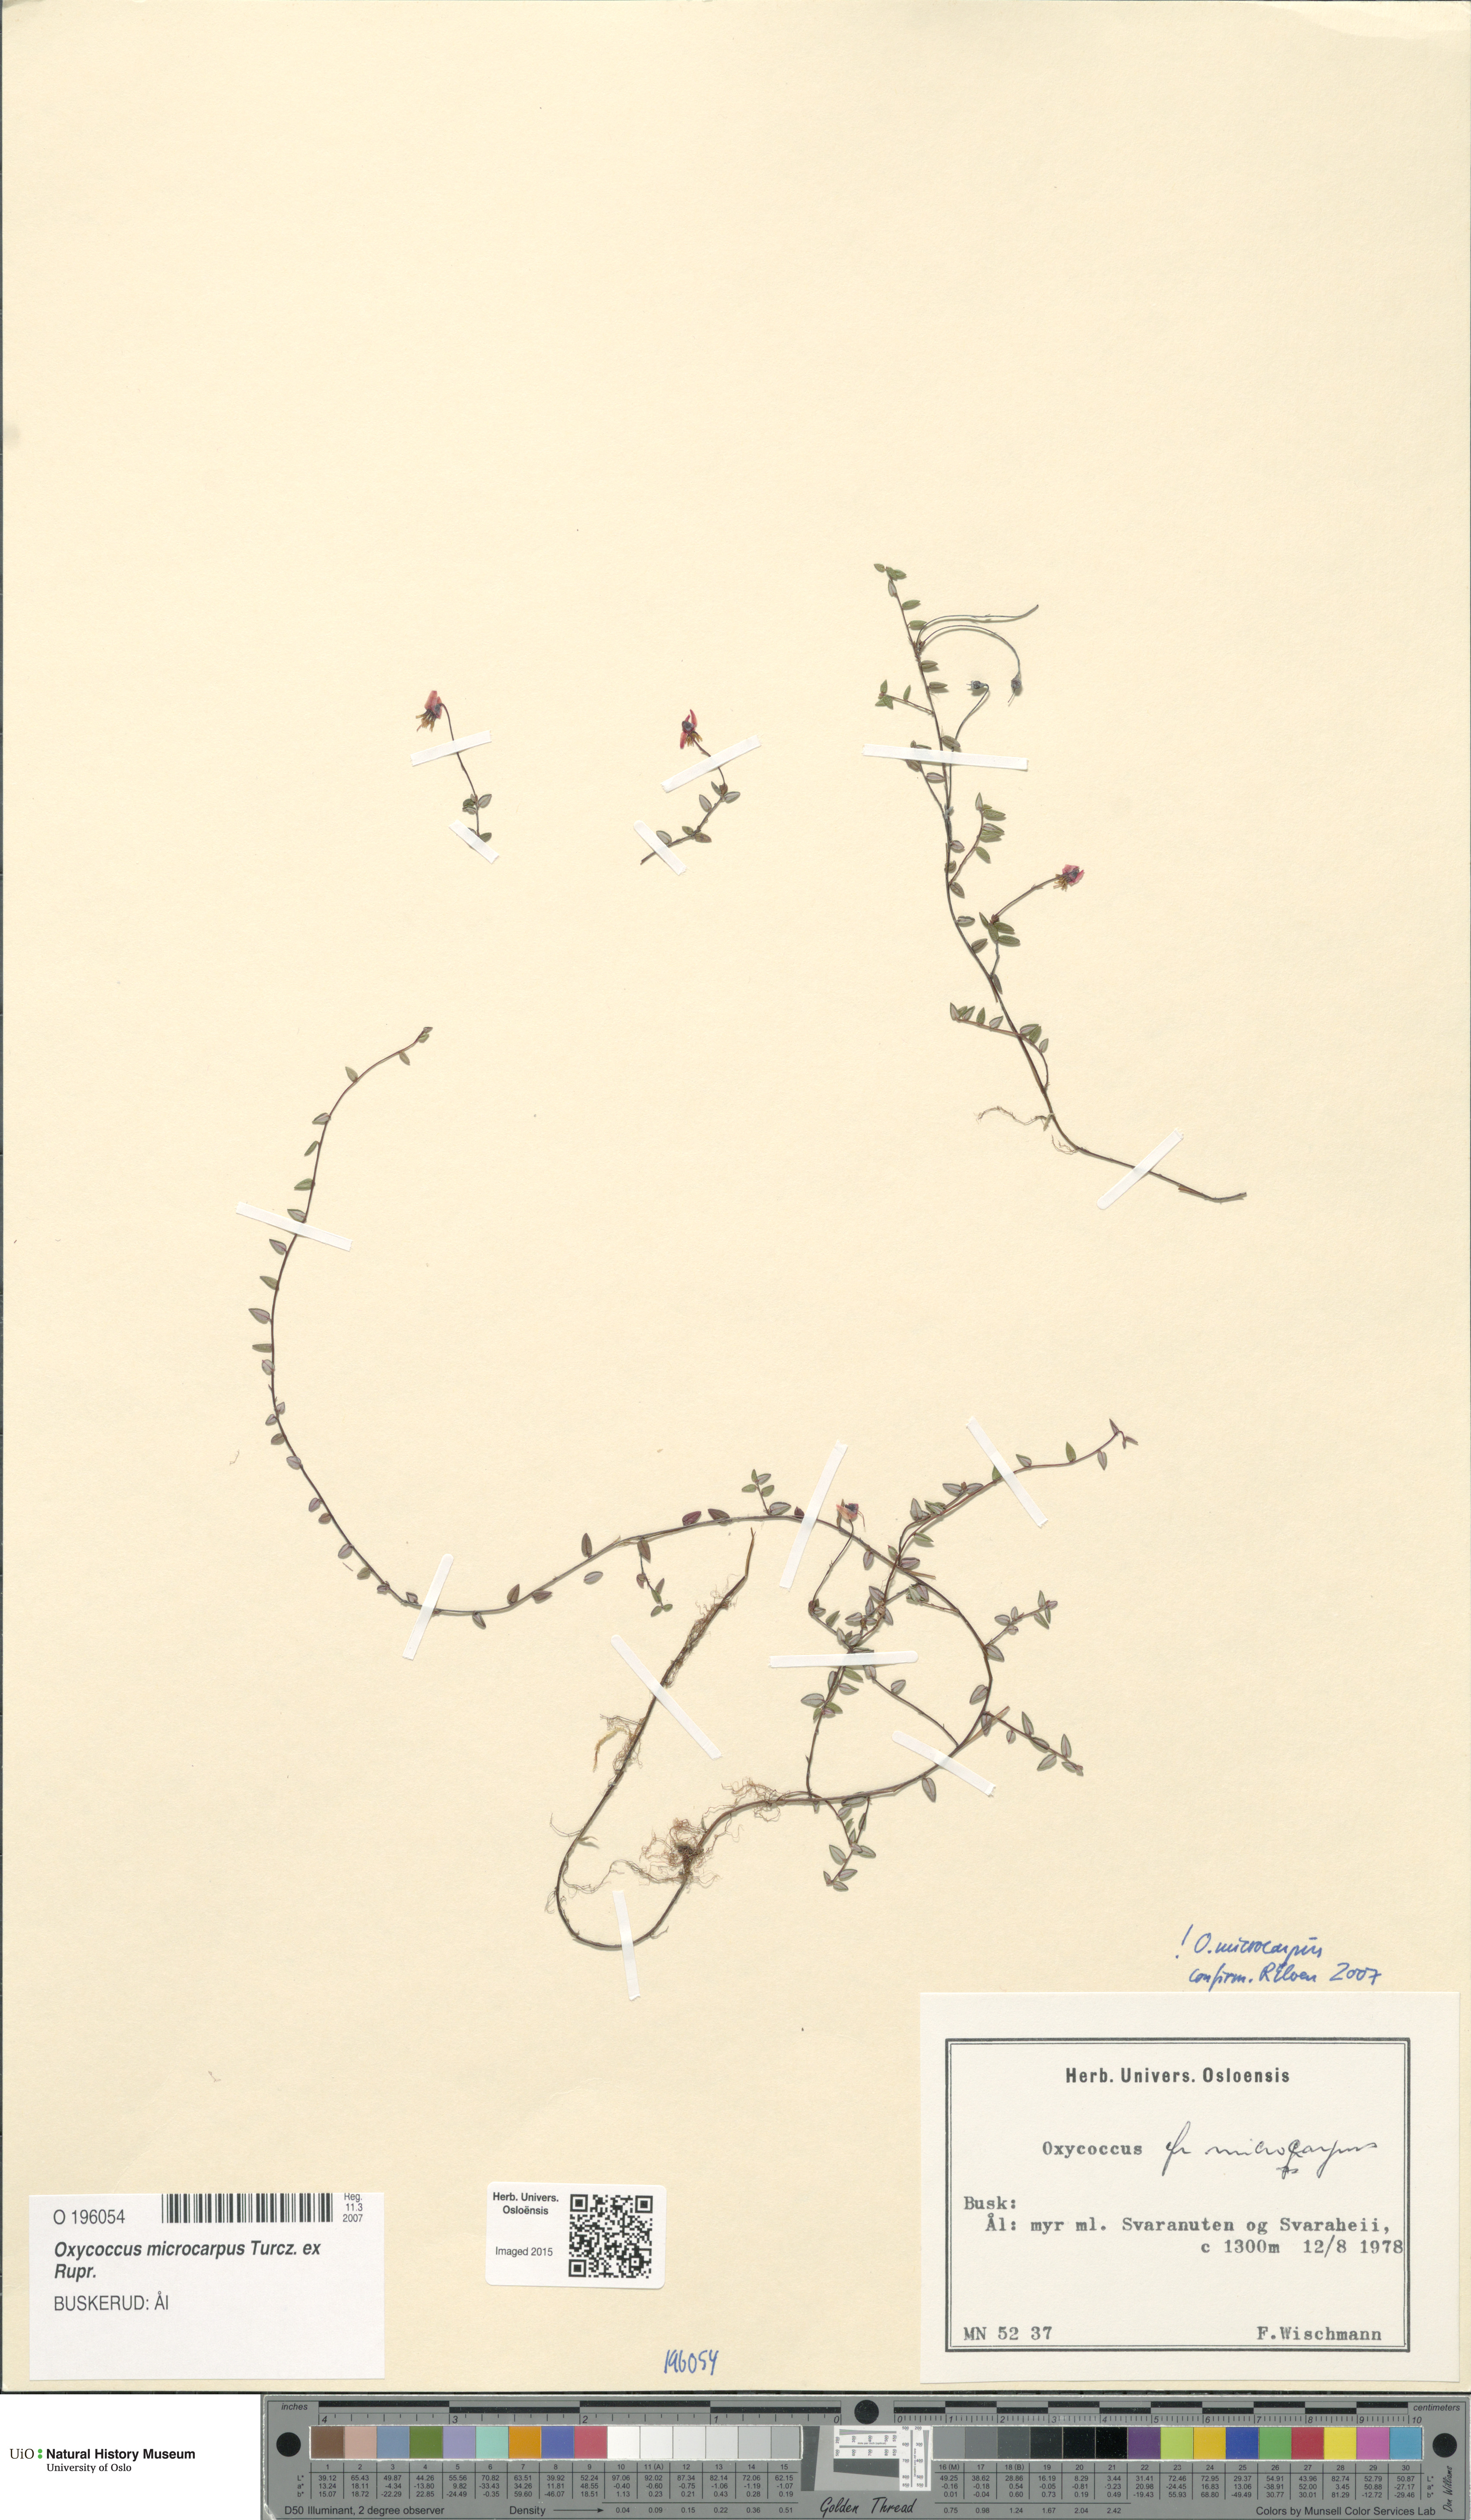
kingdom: Plantae
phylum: Tracheophyta
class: Magnoliopsida
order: Ericales
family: Ericaceae
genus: Vaccinium
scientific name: Vaccinium microcarpum
